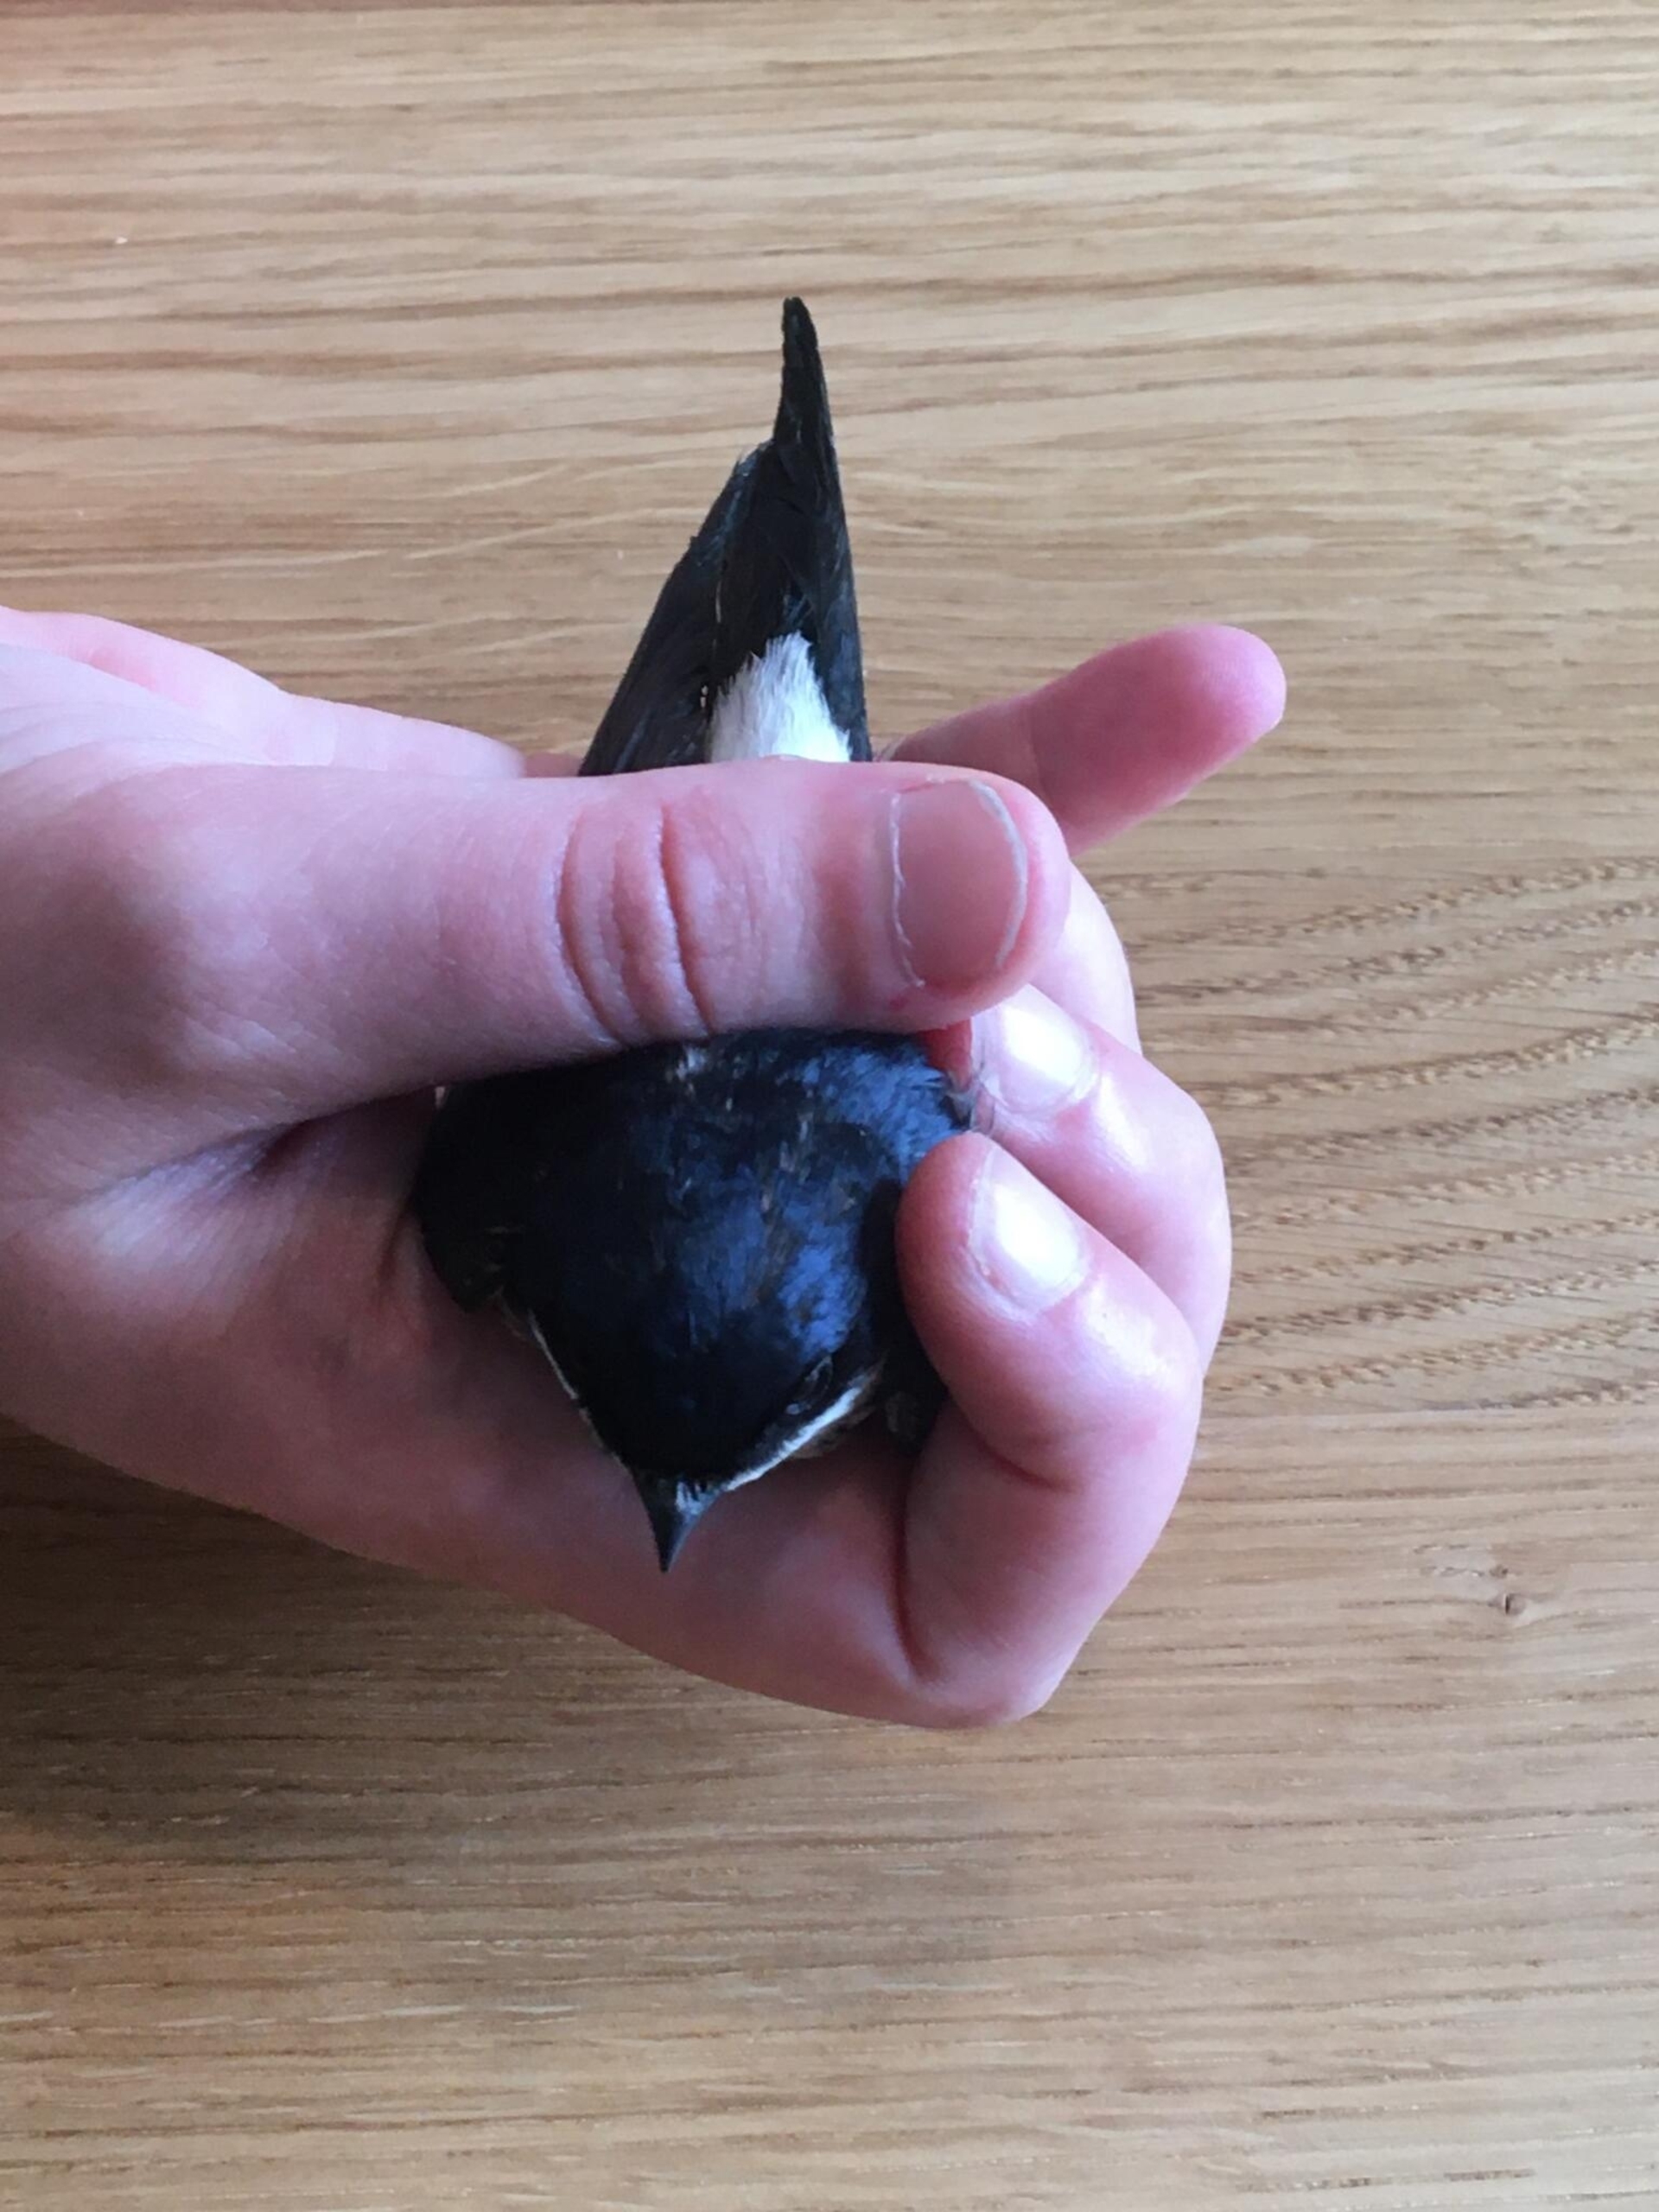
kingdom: Animalia
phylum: Chordata
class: Aves
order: Passeriformes
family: Hirundinidae
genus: Delichon
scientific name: Delichon urbicum
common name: Bysvale
